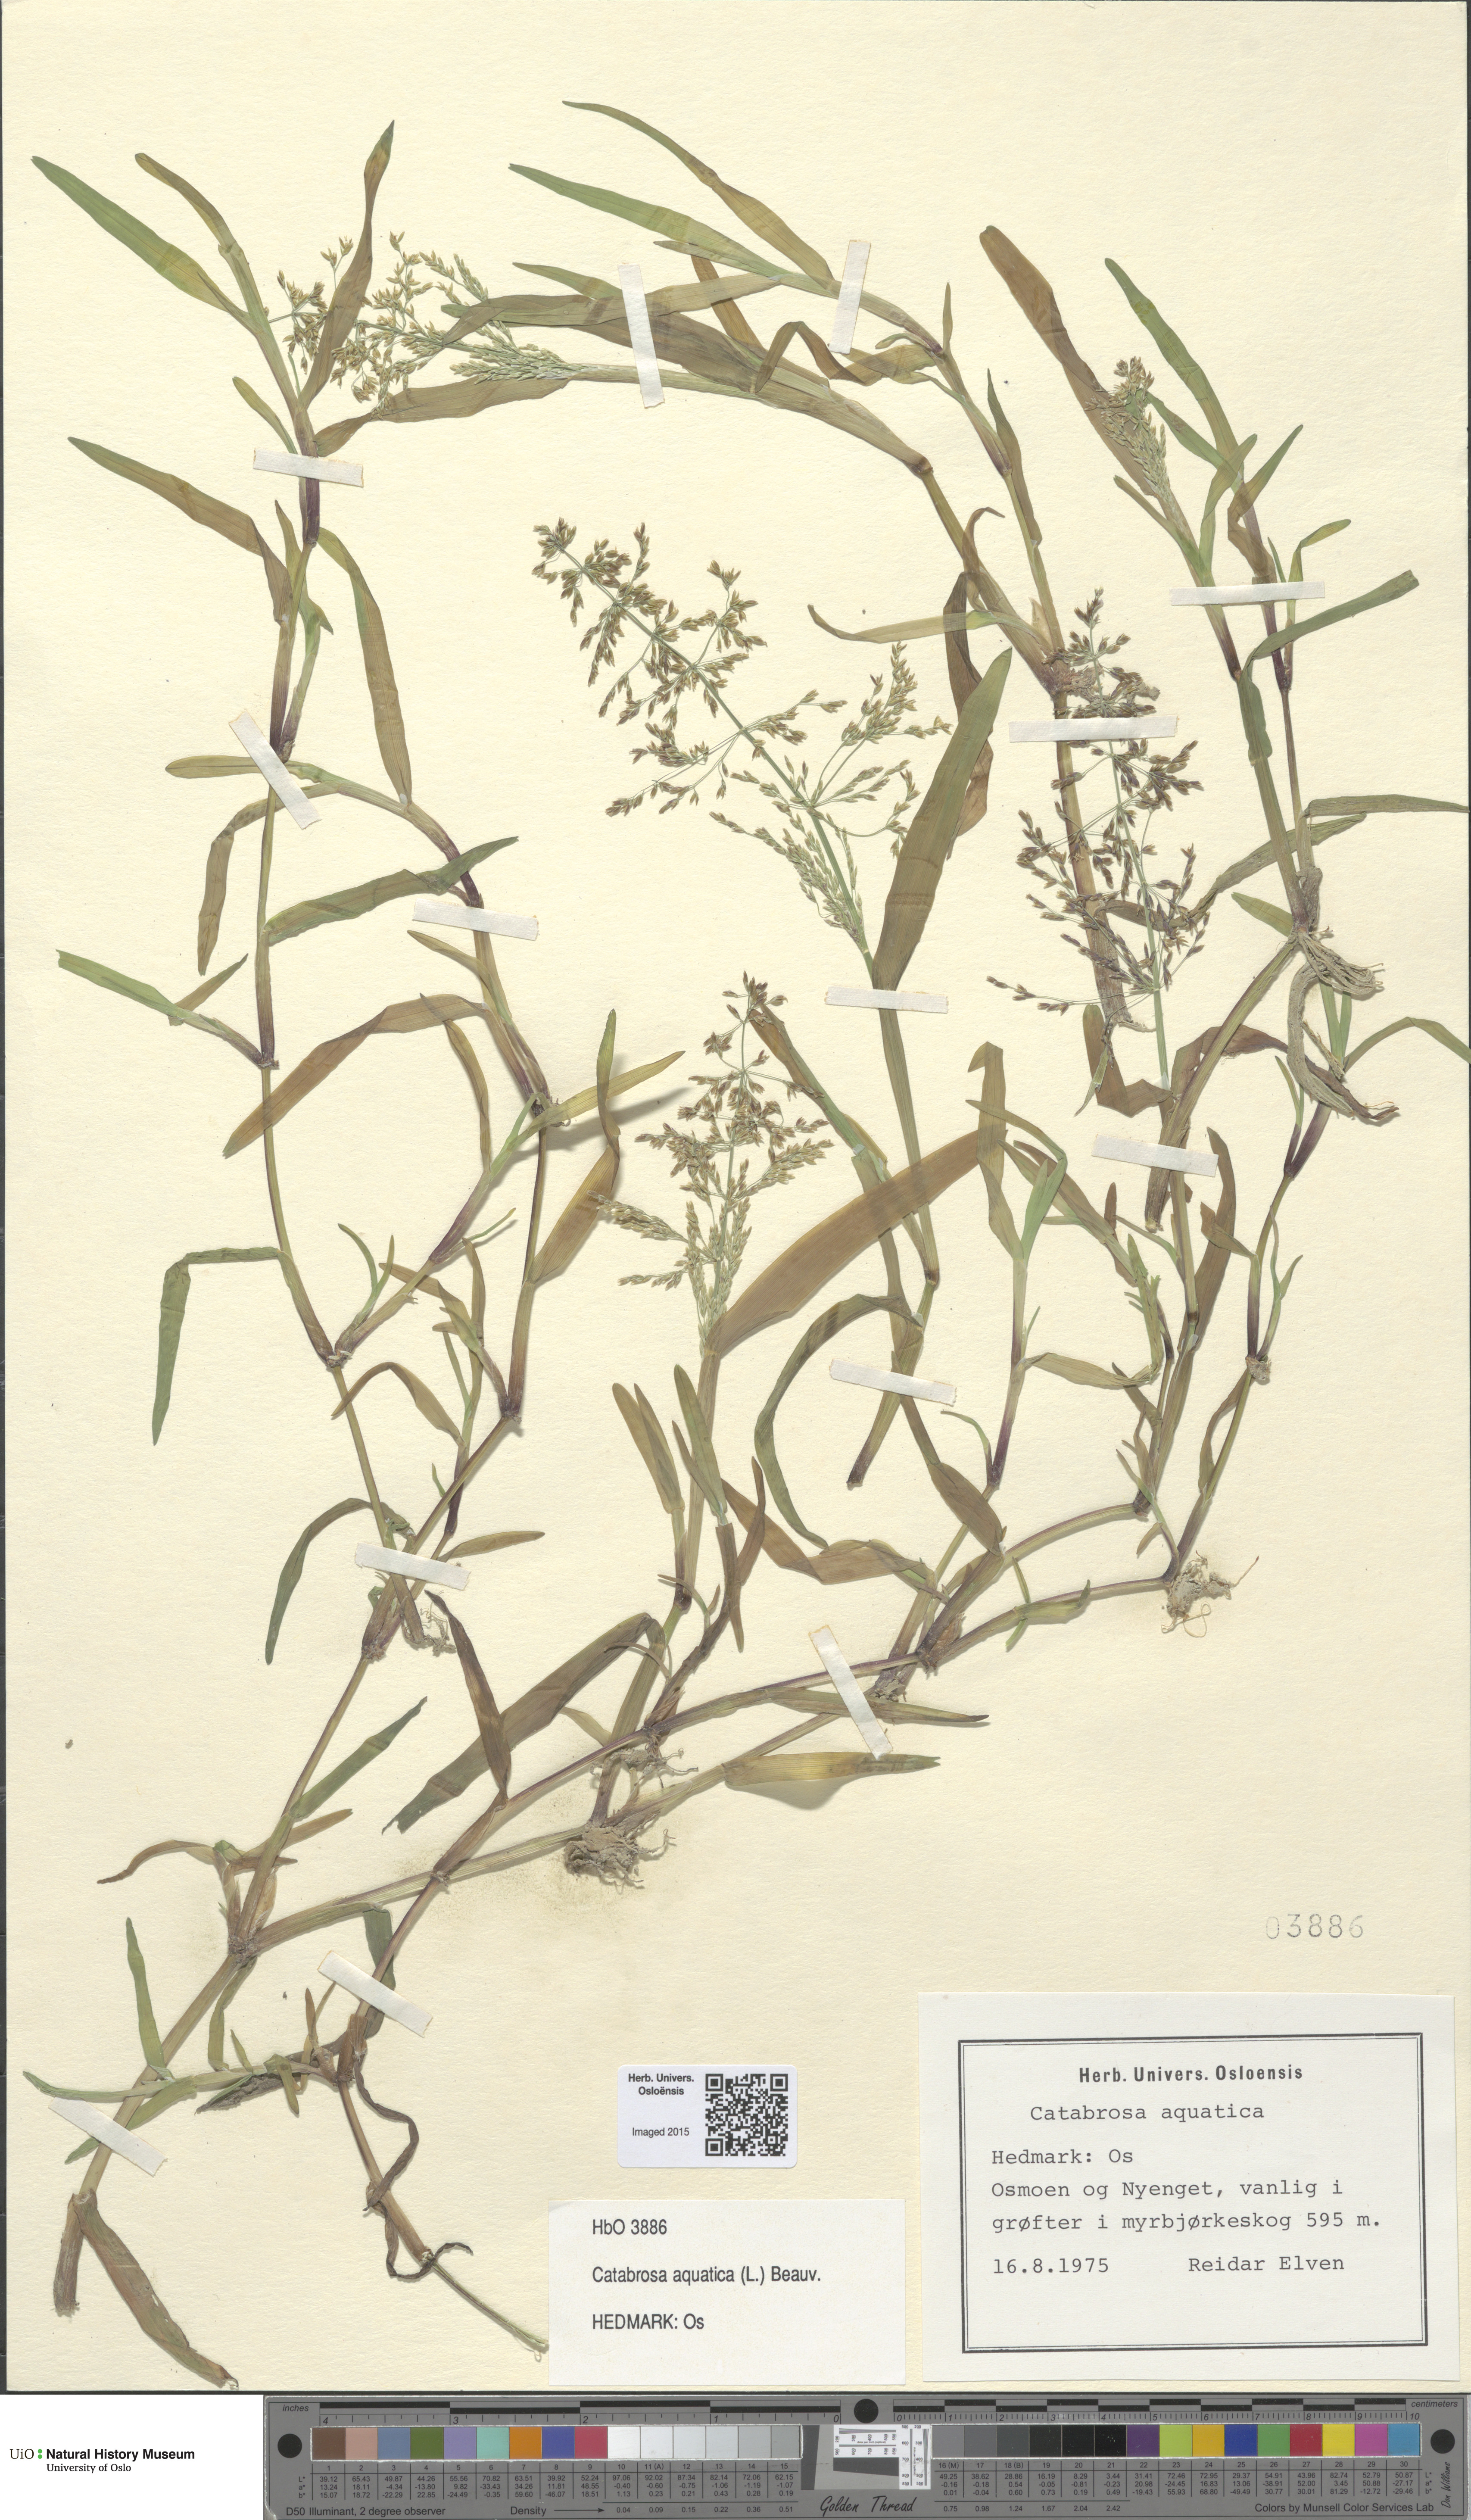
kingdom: Plantae
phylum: Tracheophyta
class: Liliopsida
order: Poales
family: Poaceae
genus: Catabrosa
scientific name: Catabrosa aquatica
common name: Whorl-grass
